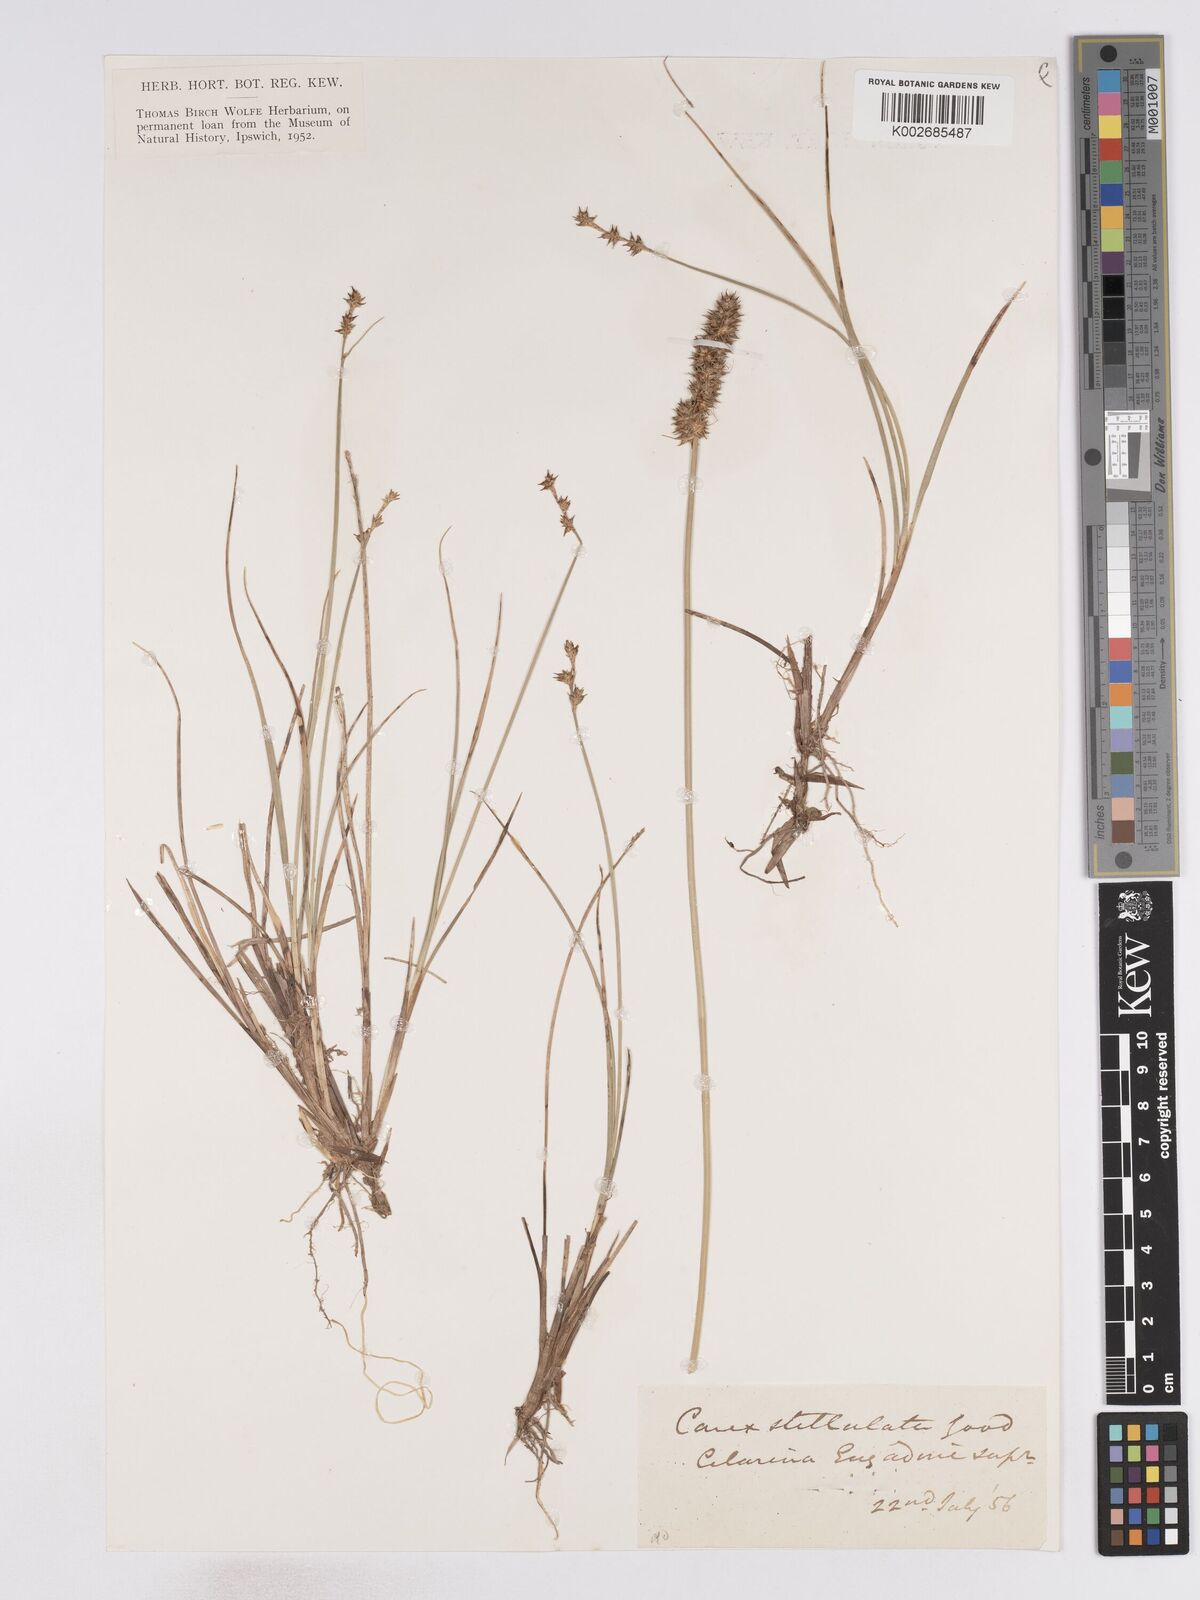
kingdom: Plantae
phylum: Tracheophyta
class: Liliopsida
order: Poales
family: Cyperaceae
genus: Carex
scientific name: Carex echinata
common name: Star sedge
